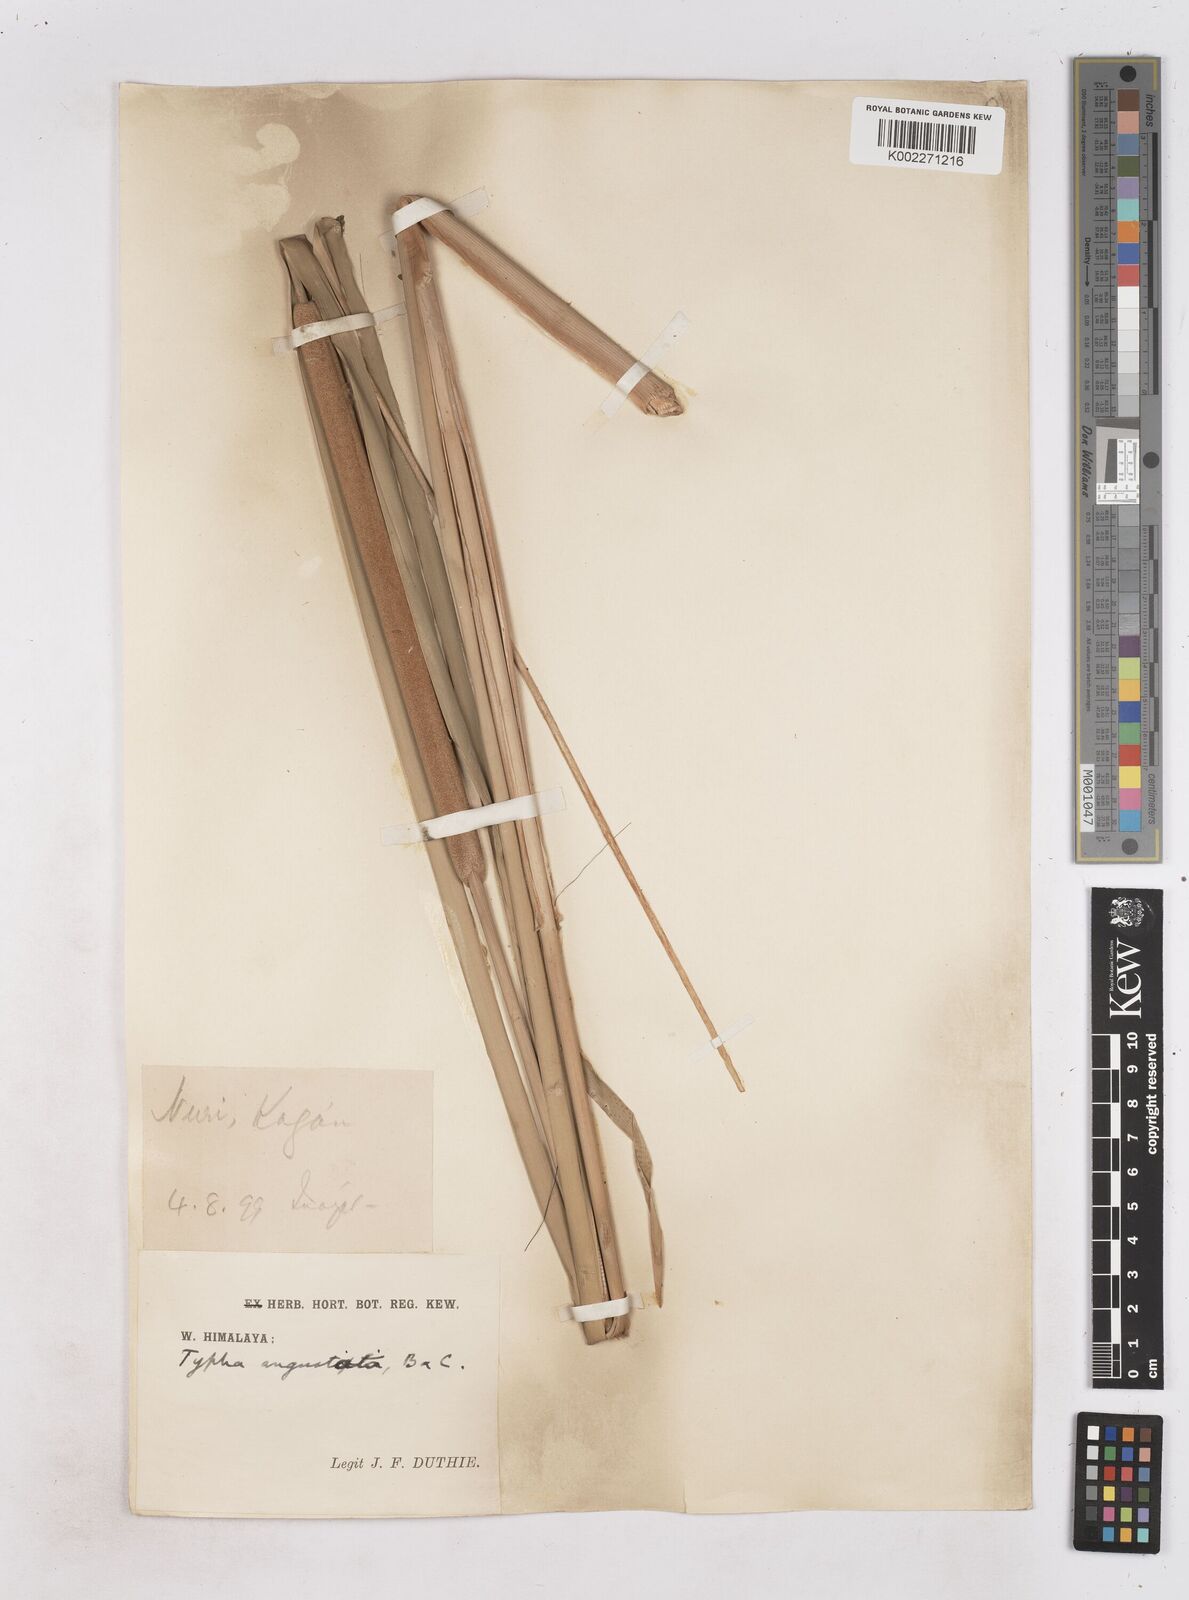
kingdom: Plantae
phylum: Tracheophyta
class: Liliopsida
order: Poales
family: Typhaceae
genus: Typha
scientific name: Typha domingensis
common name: Southern cattail
